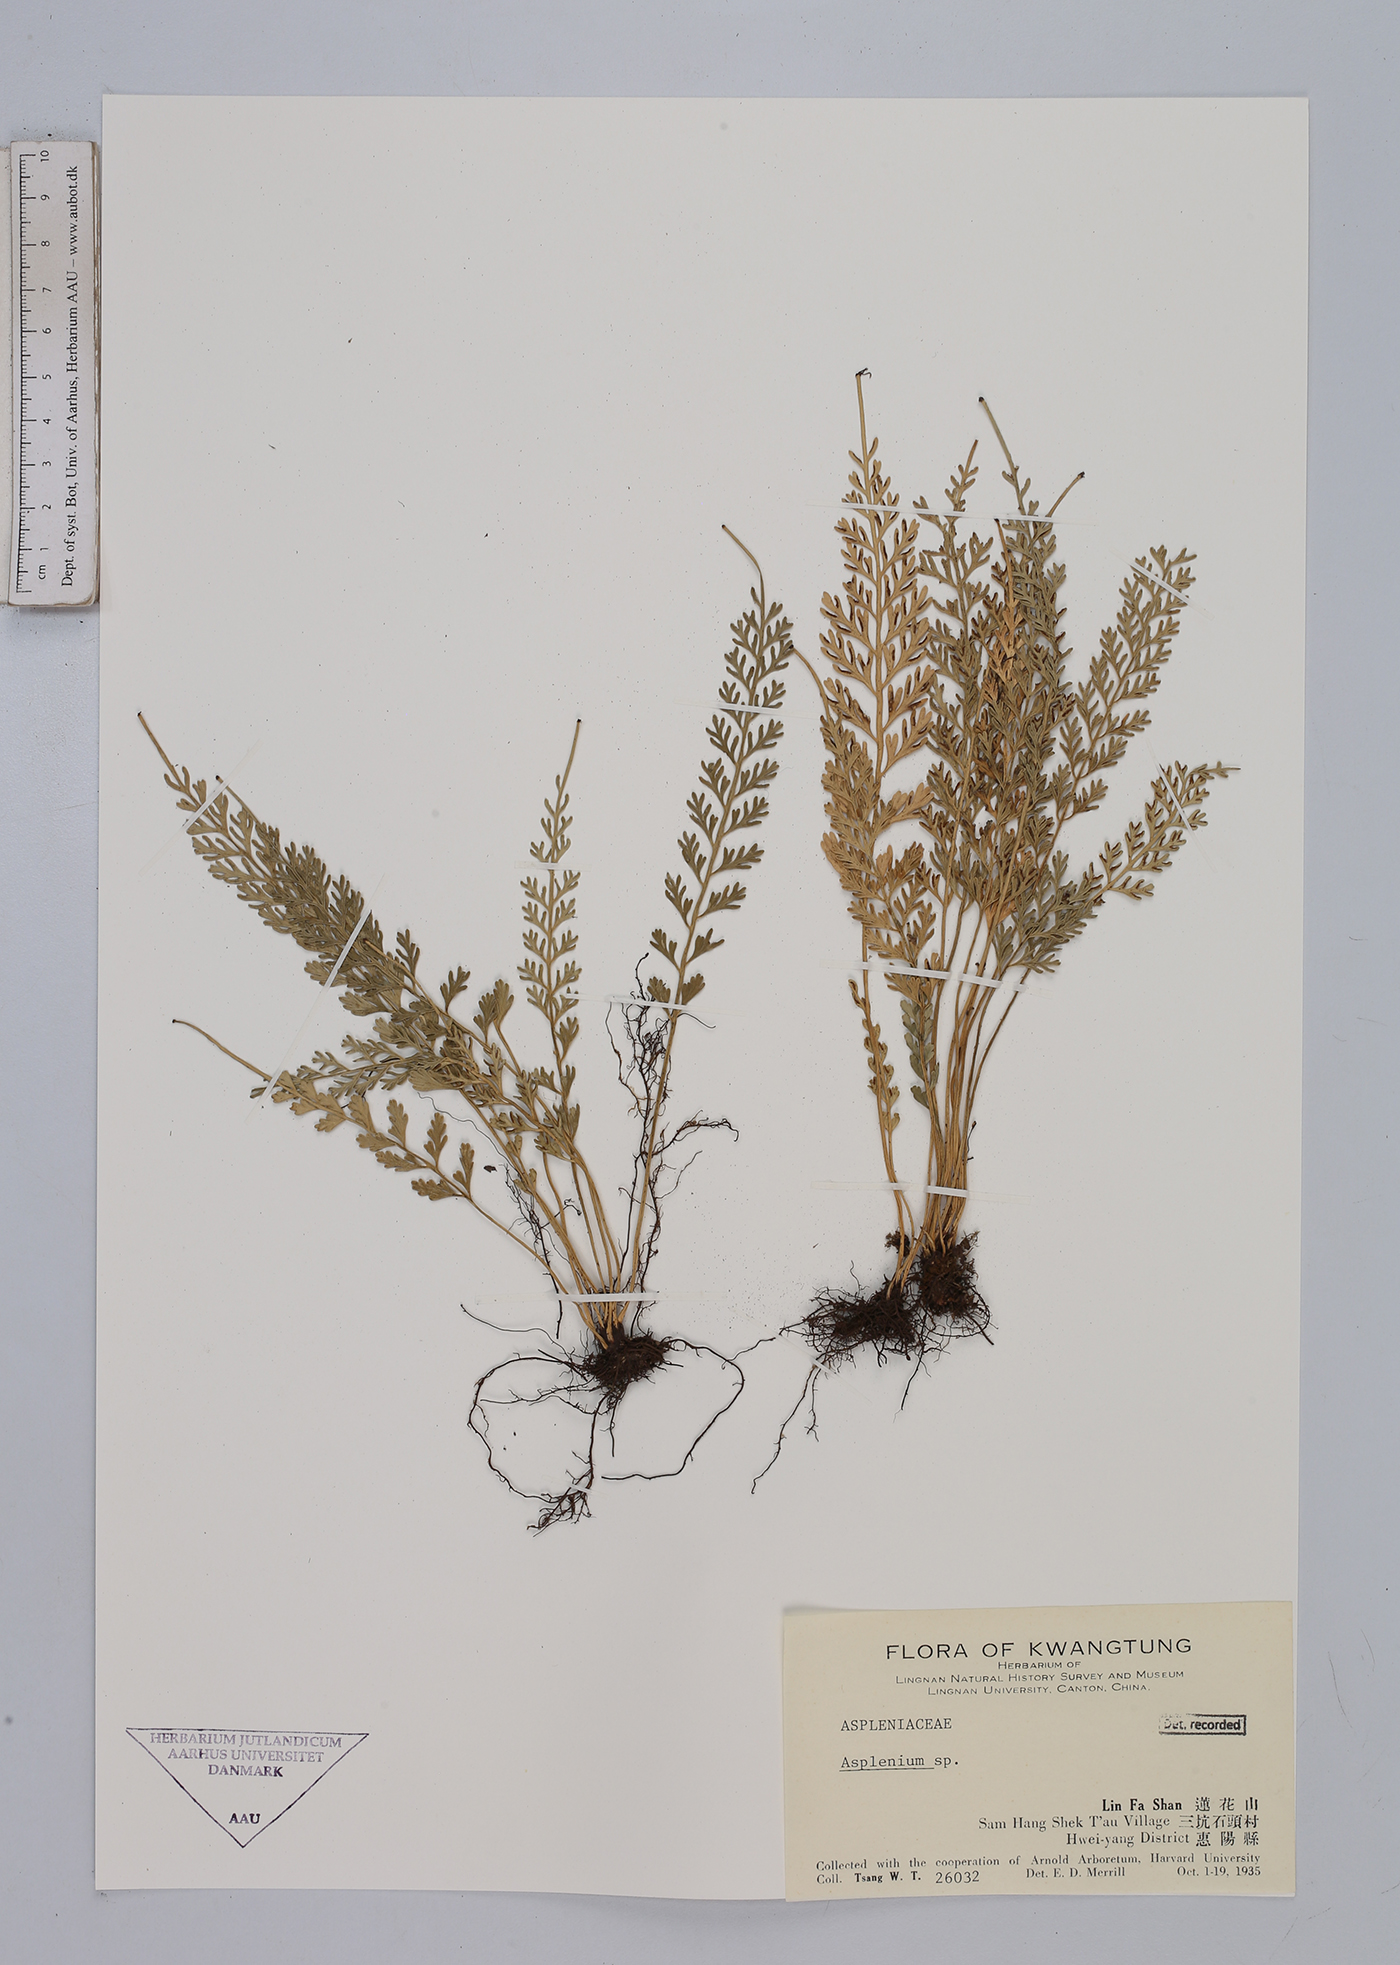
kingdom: Plantae
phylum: Tracheophyta
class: Polypodiopsida
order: Polypodiales
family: Aspleniaceae
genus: Asplenium
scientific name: Asplenium
